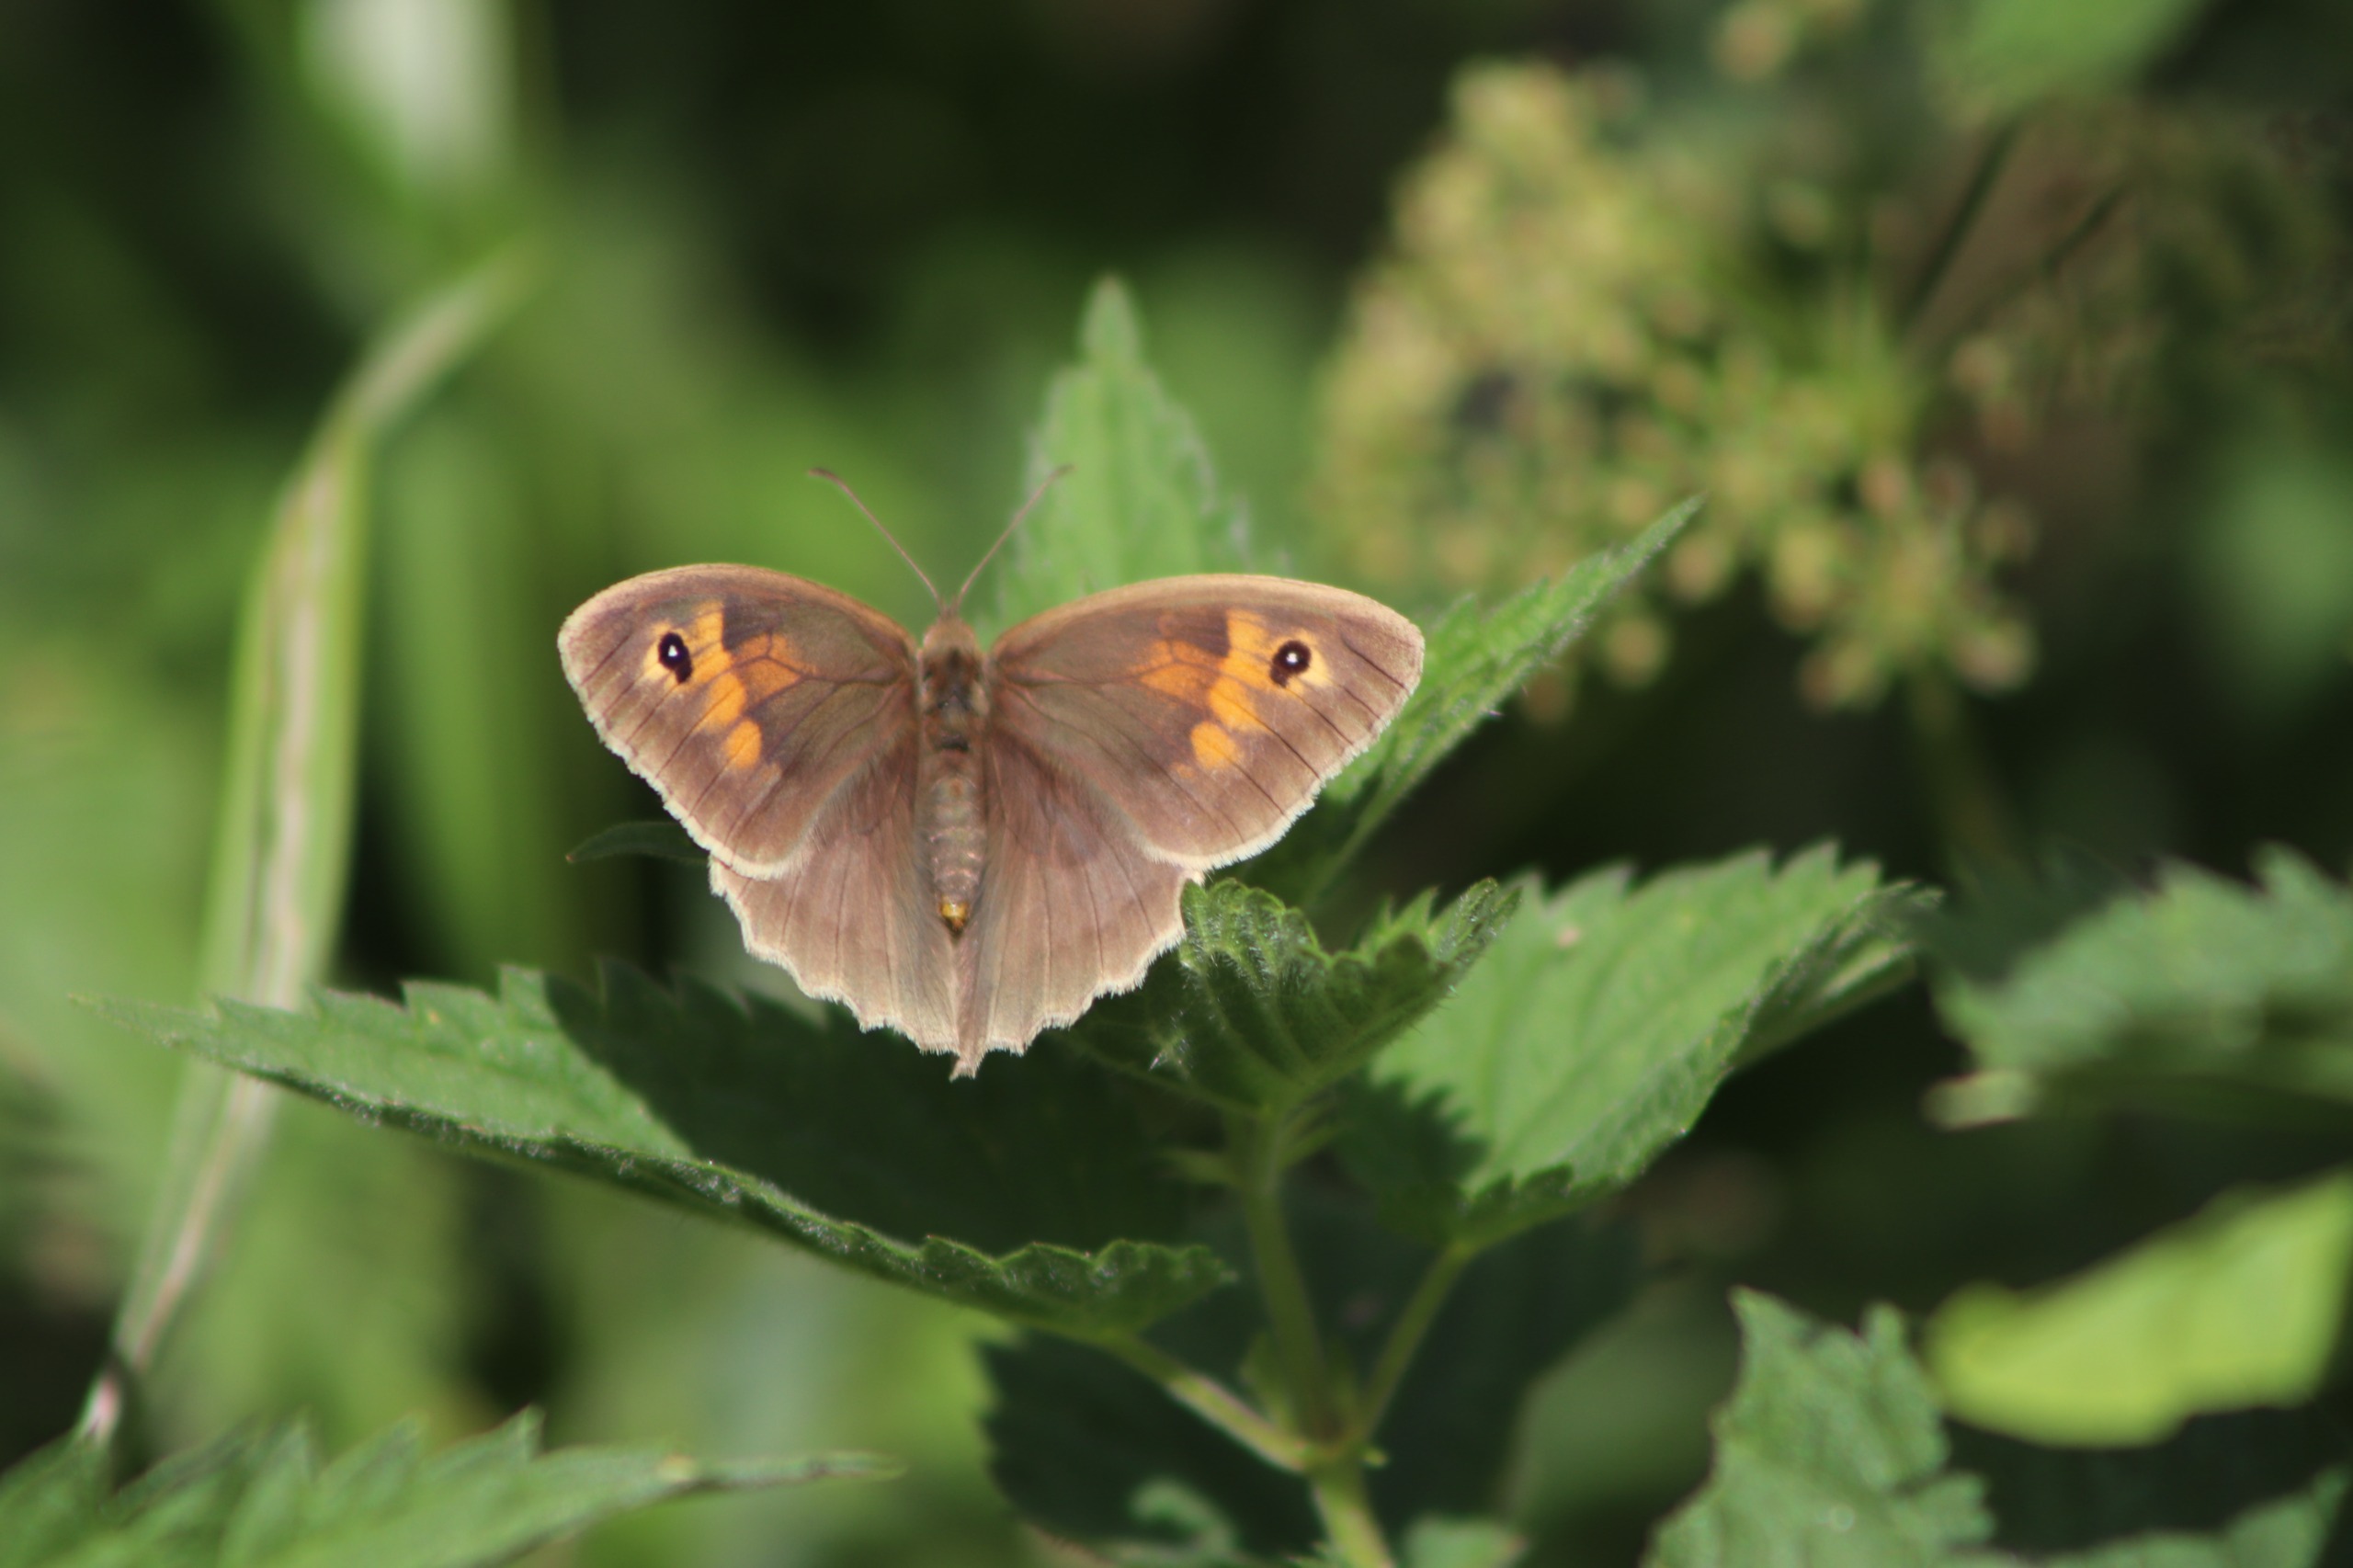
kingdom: Animalia
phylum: Arthropoda
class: Insecta
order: Lepidoptera
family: Nymphalidae
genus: Maniola
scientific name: Maniola jurtina
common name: Græsrandøje
